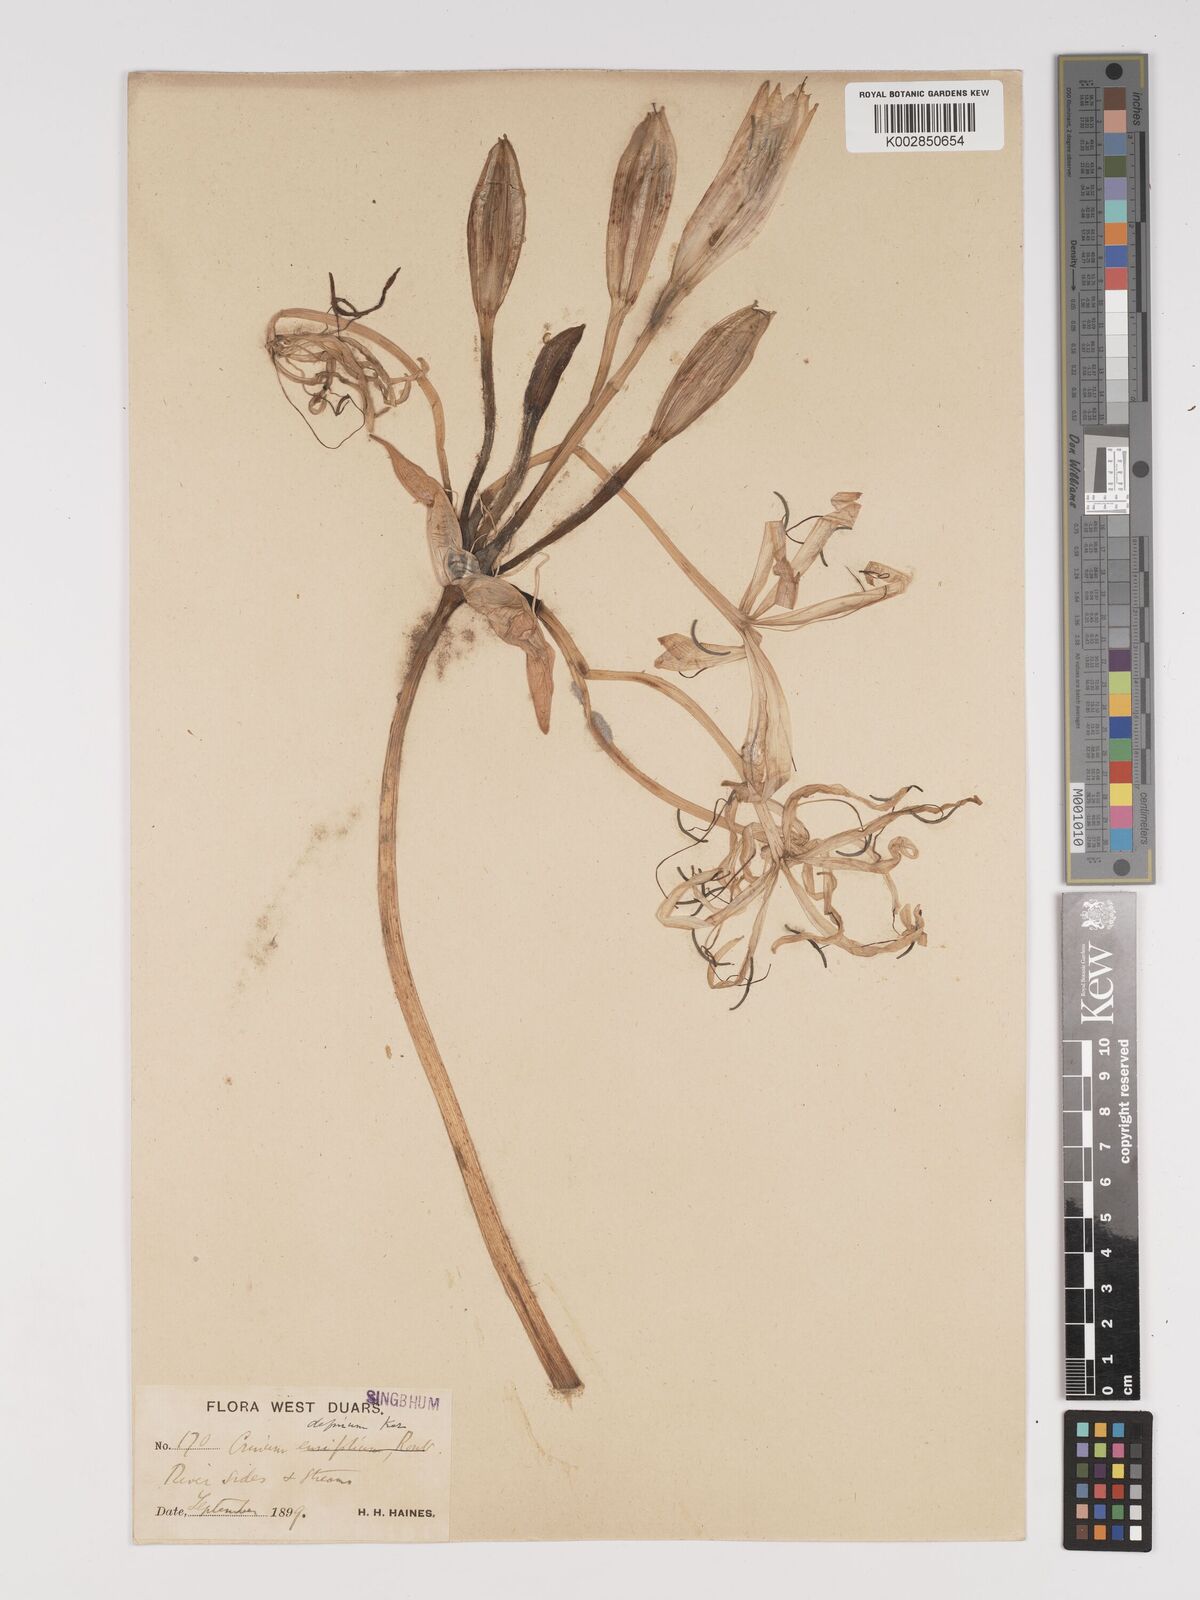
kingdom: Plantae
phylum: Tracheophyta
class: Liliopsida
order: Asparagales
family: Amaryllidaceae
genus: Crinum
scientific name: Crinum
